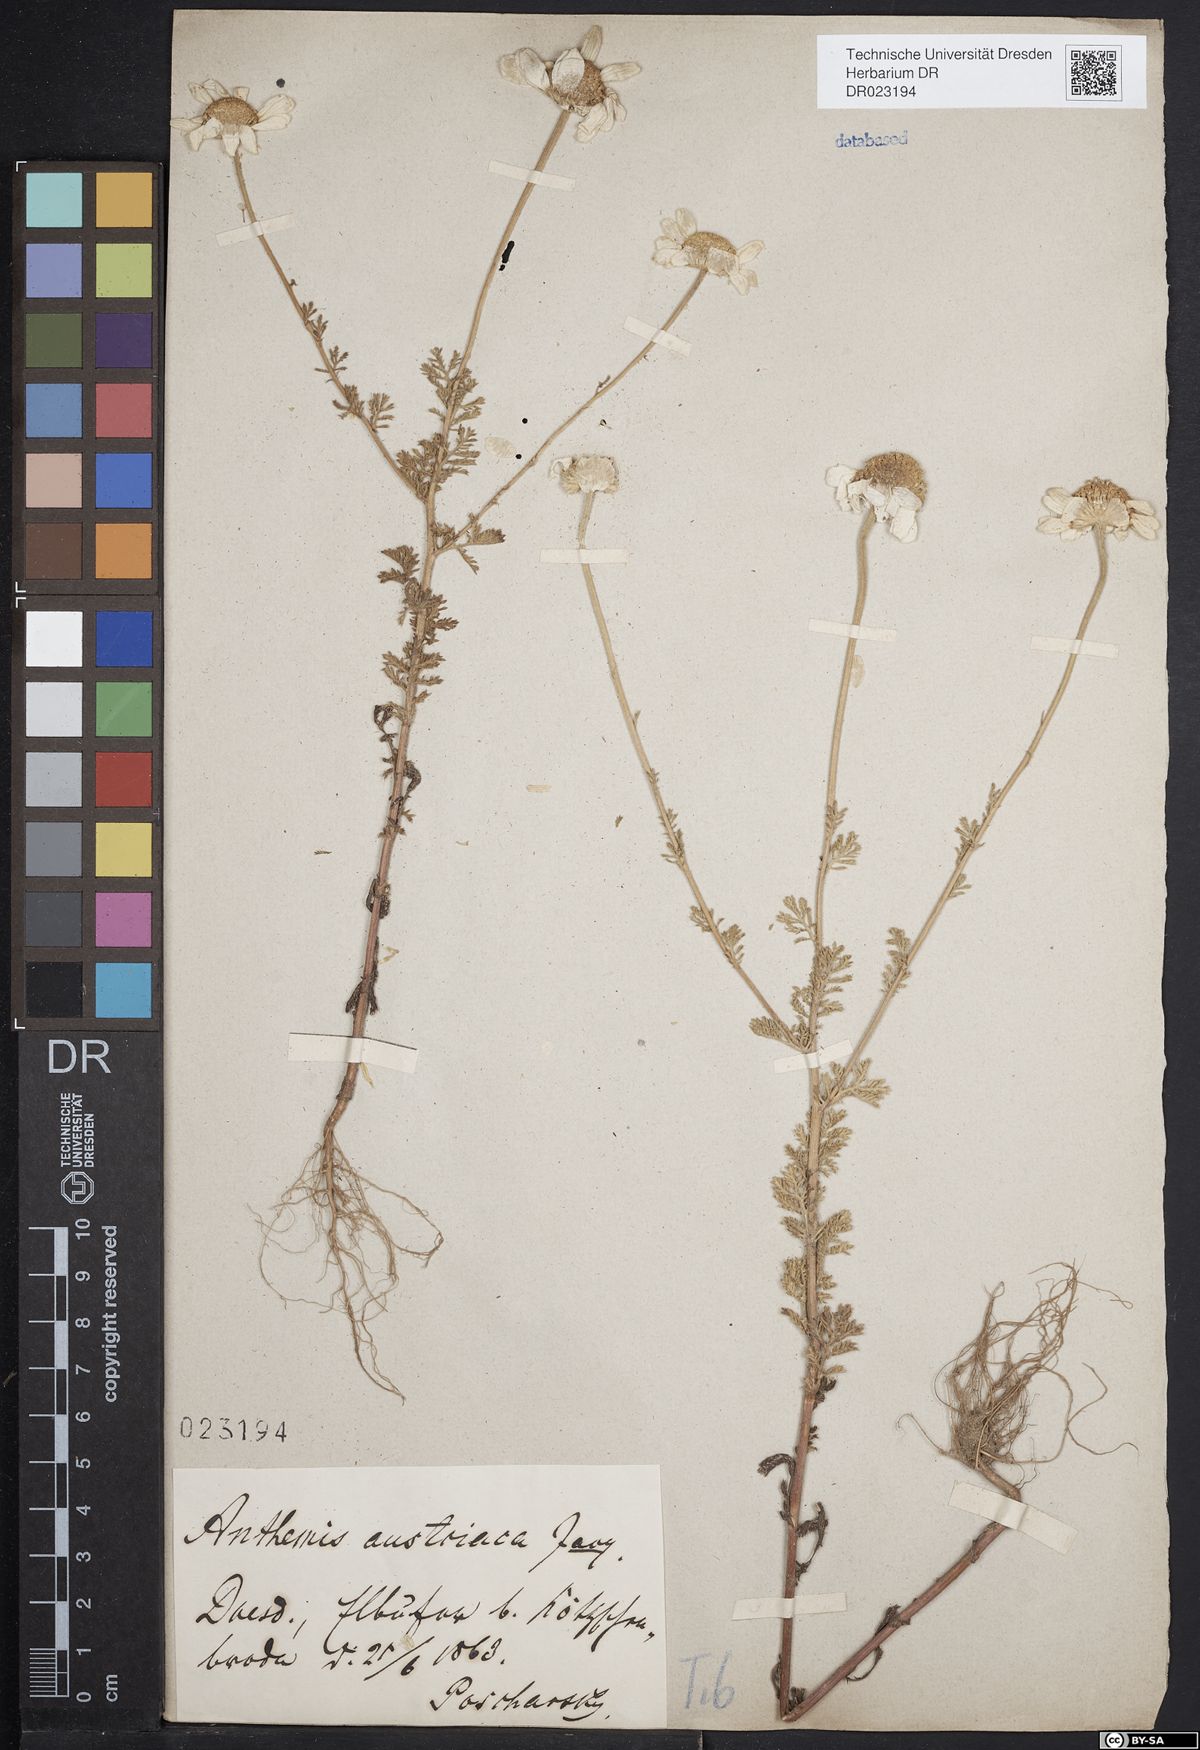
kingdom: Plantae
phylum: Tracheophyta
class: Magnoliopsida
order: Asterales
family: Asteraceae
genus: Cota
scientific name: Cota austriaca
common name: Austrian chamomile
